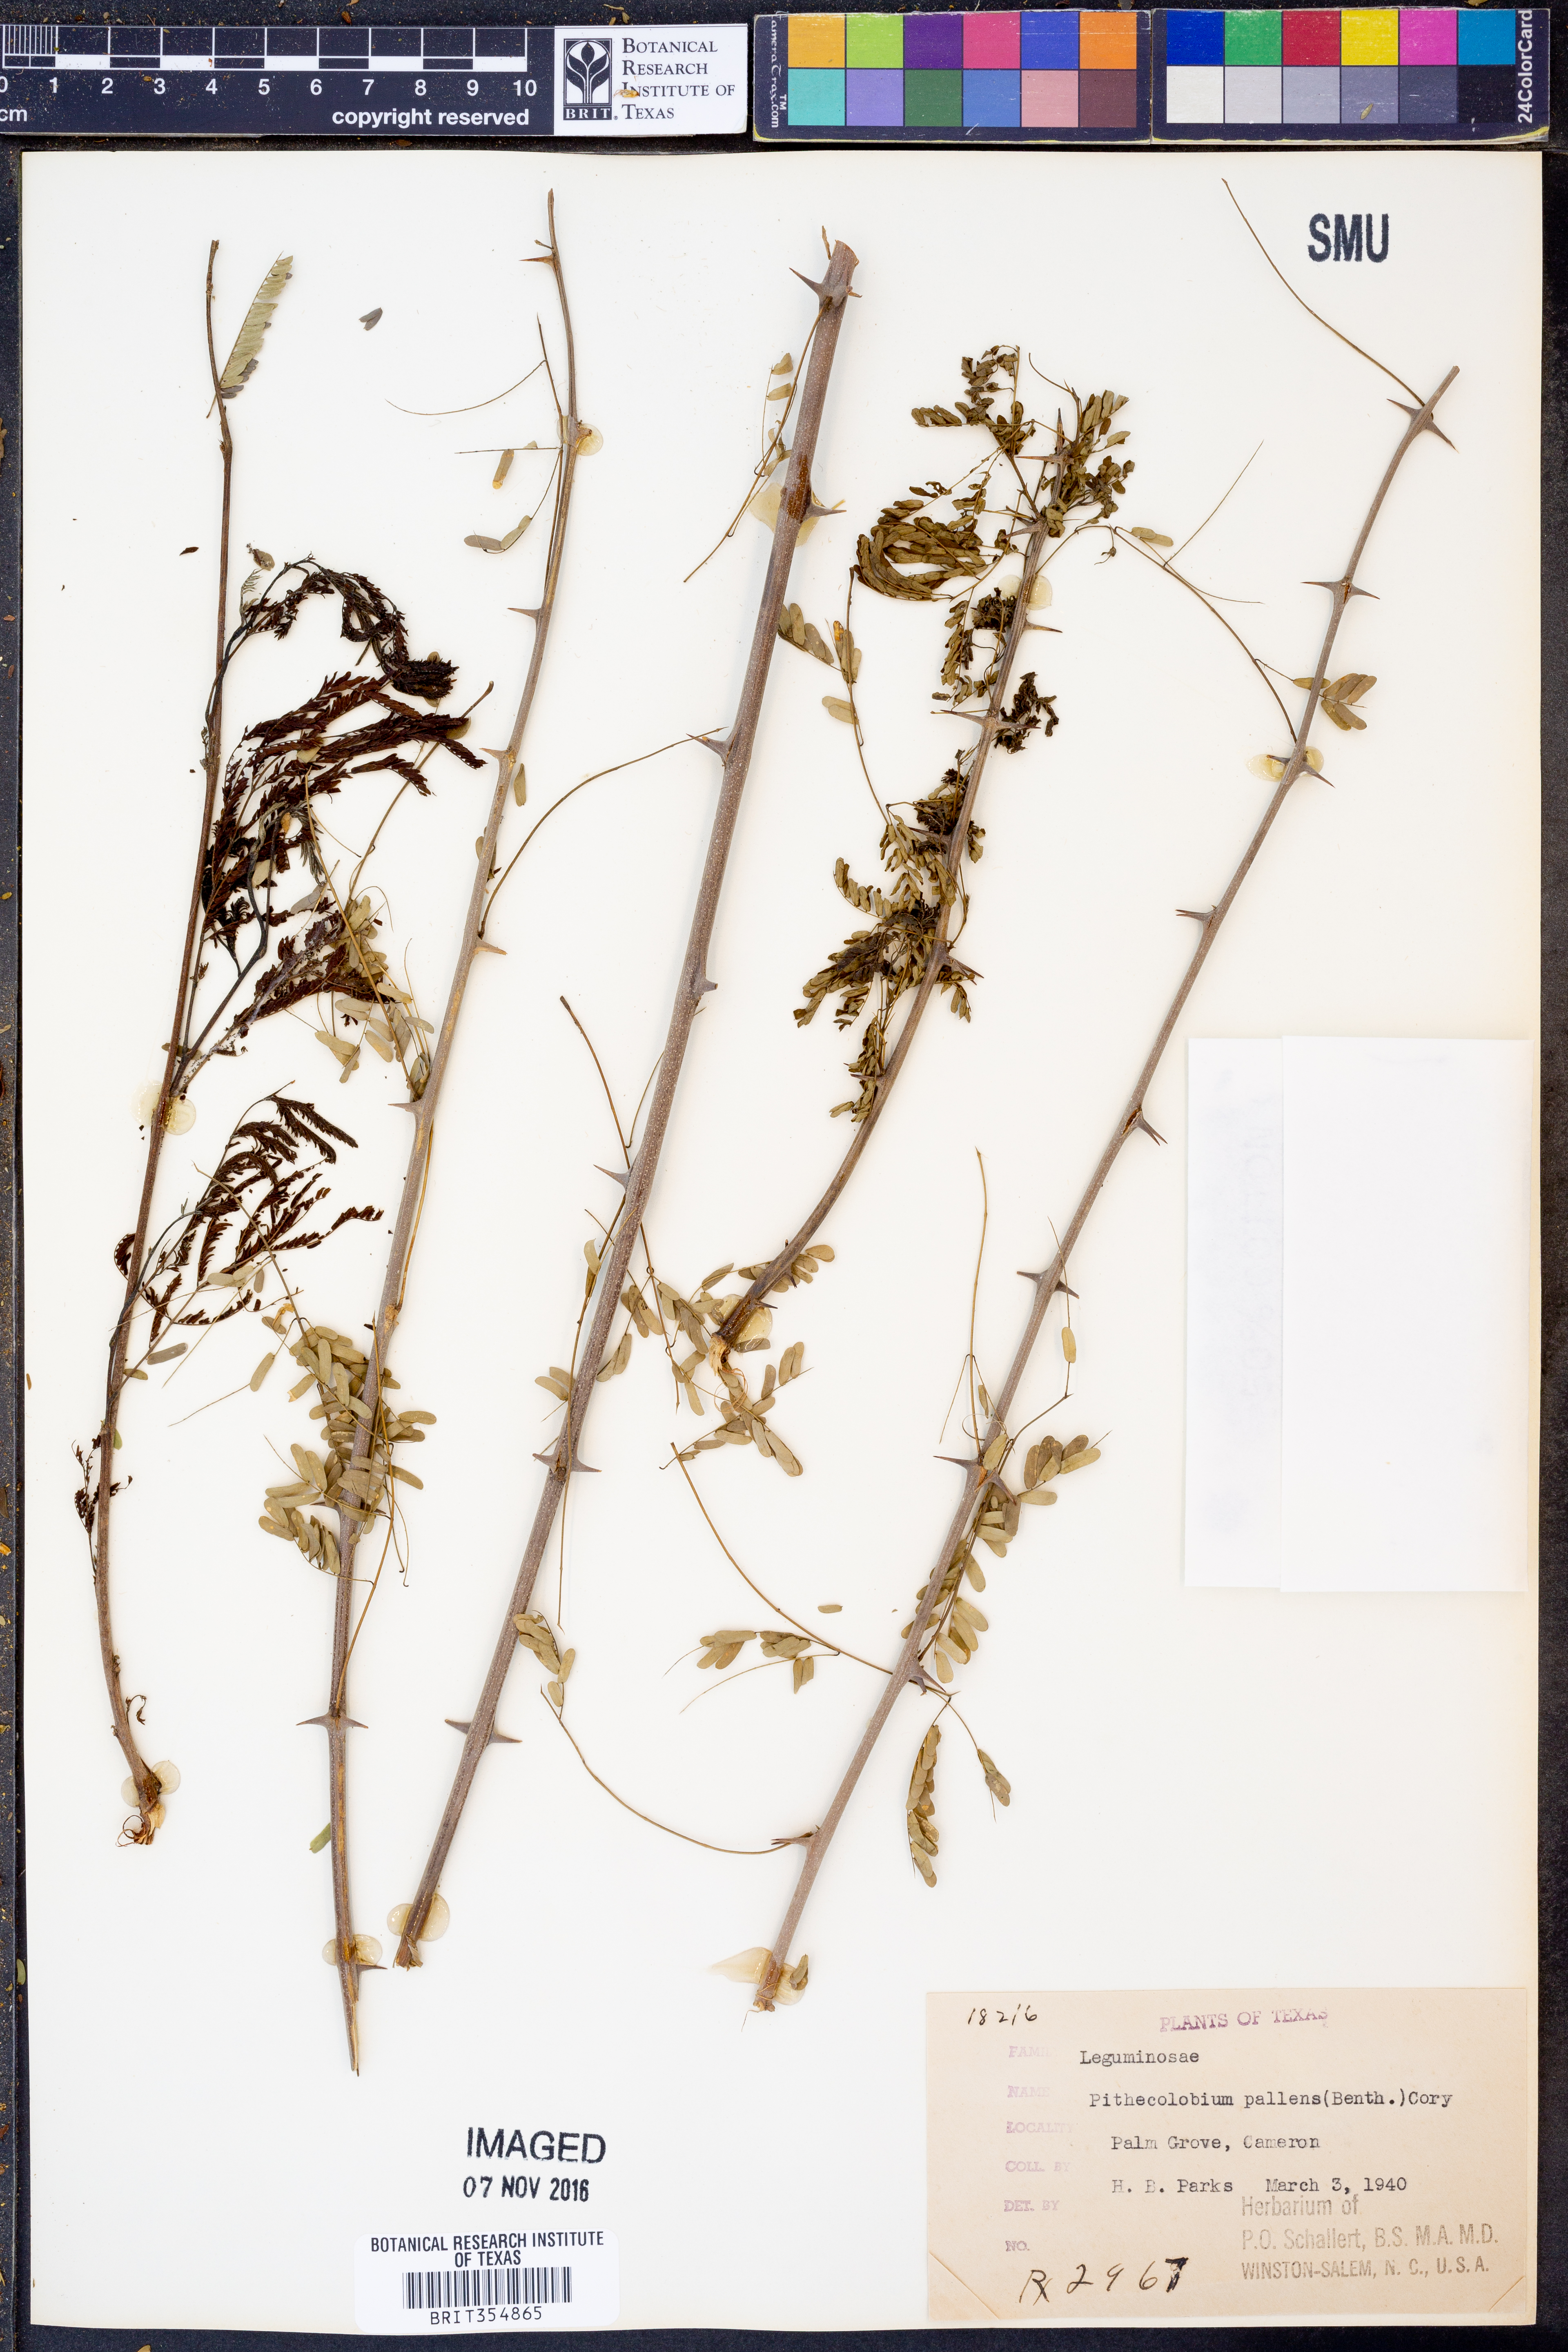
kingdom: Plantae
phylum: Tracheophyta
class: Magnoliopsida
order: Fabales
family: Fabaceae
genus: Havardia
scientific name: Havardia pallens
